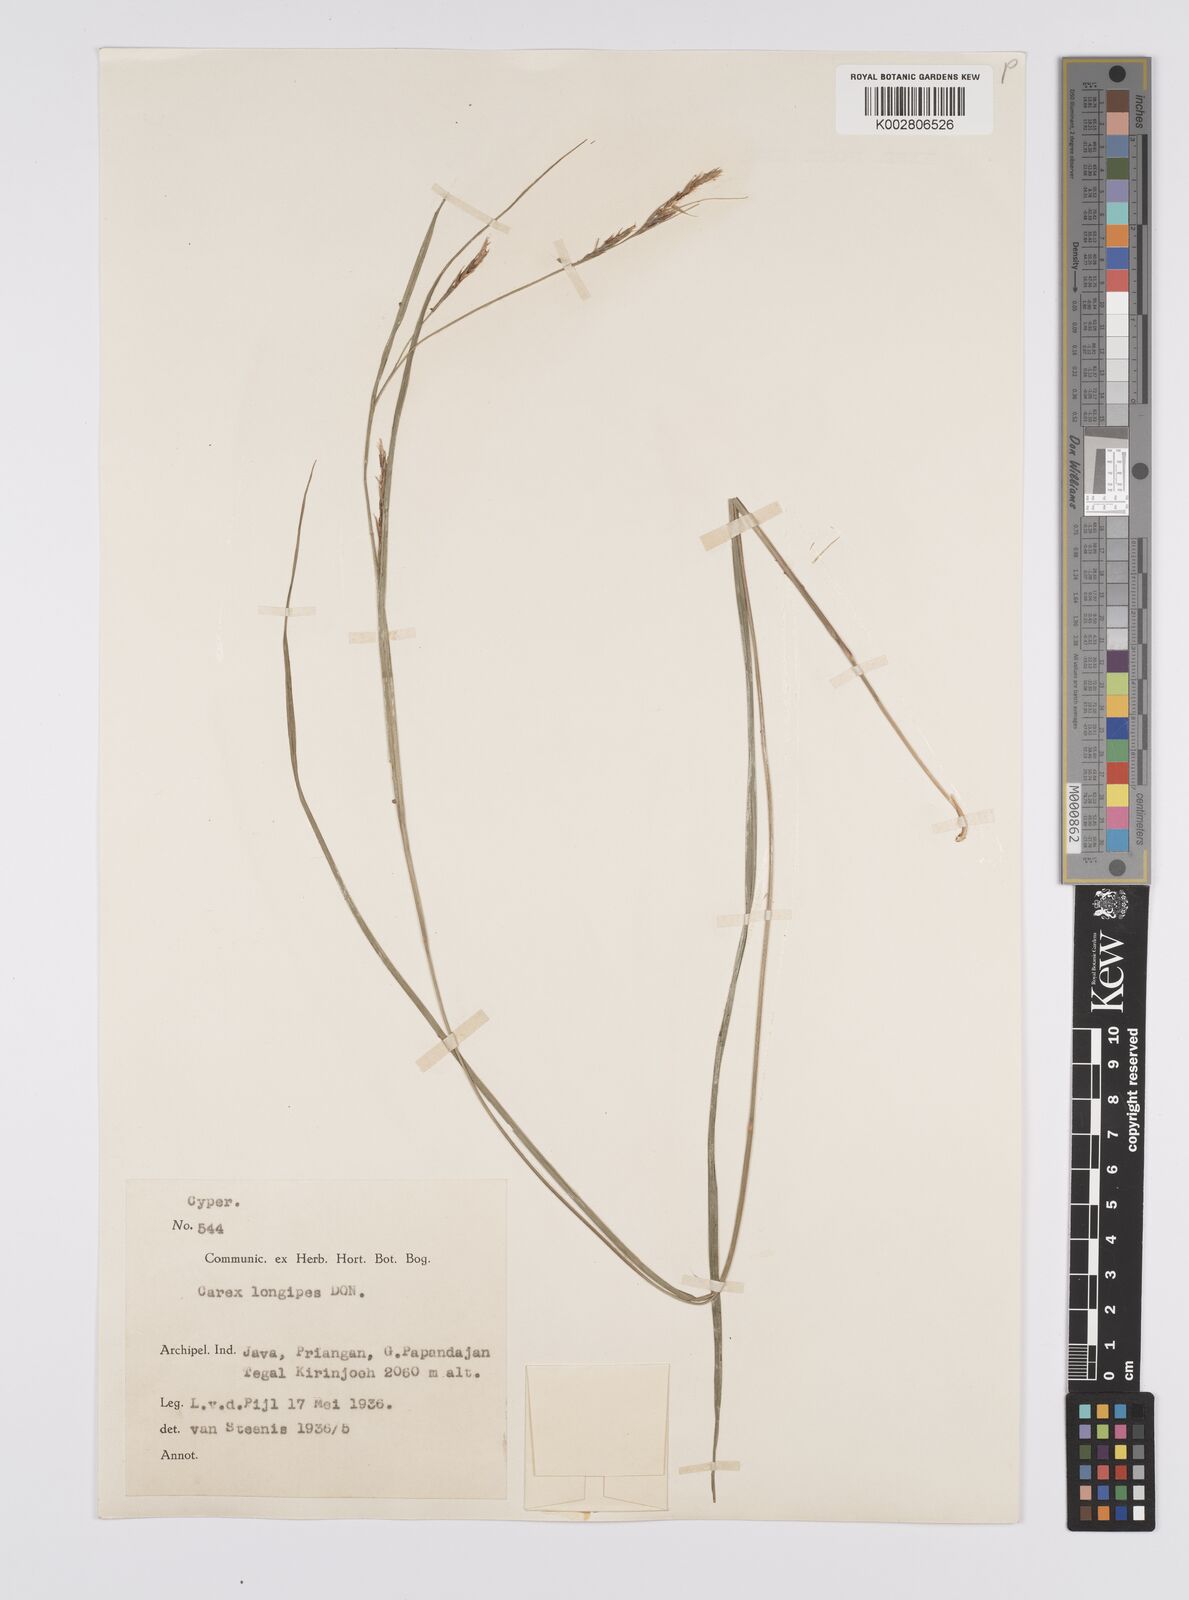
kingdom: Plantae
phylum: Tracheophyta
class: Liliopsida
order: Poales
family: Cyperaceae
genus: Carex
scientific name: Carex longipes
